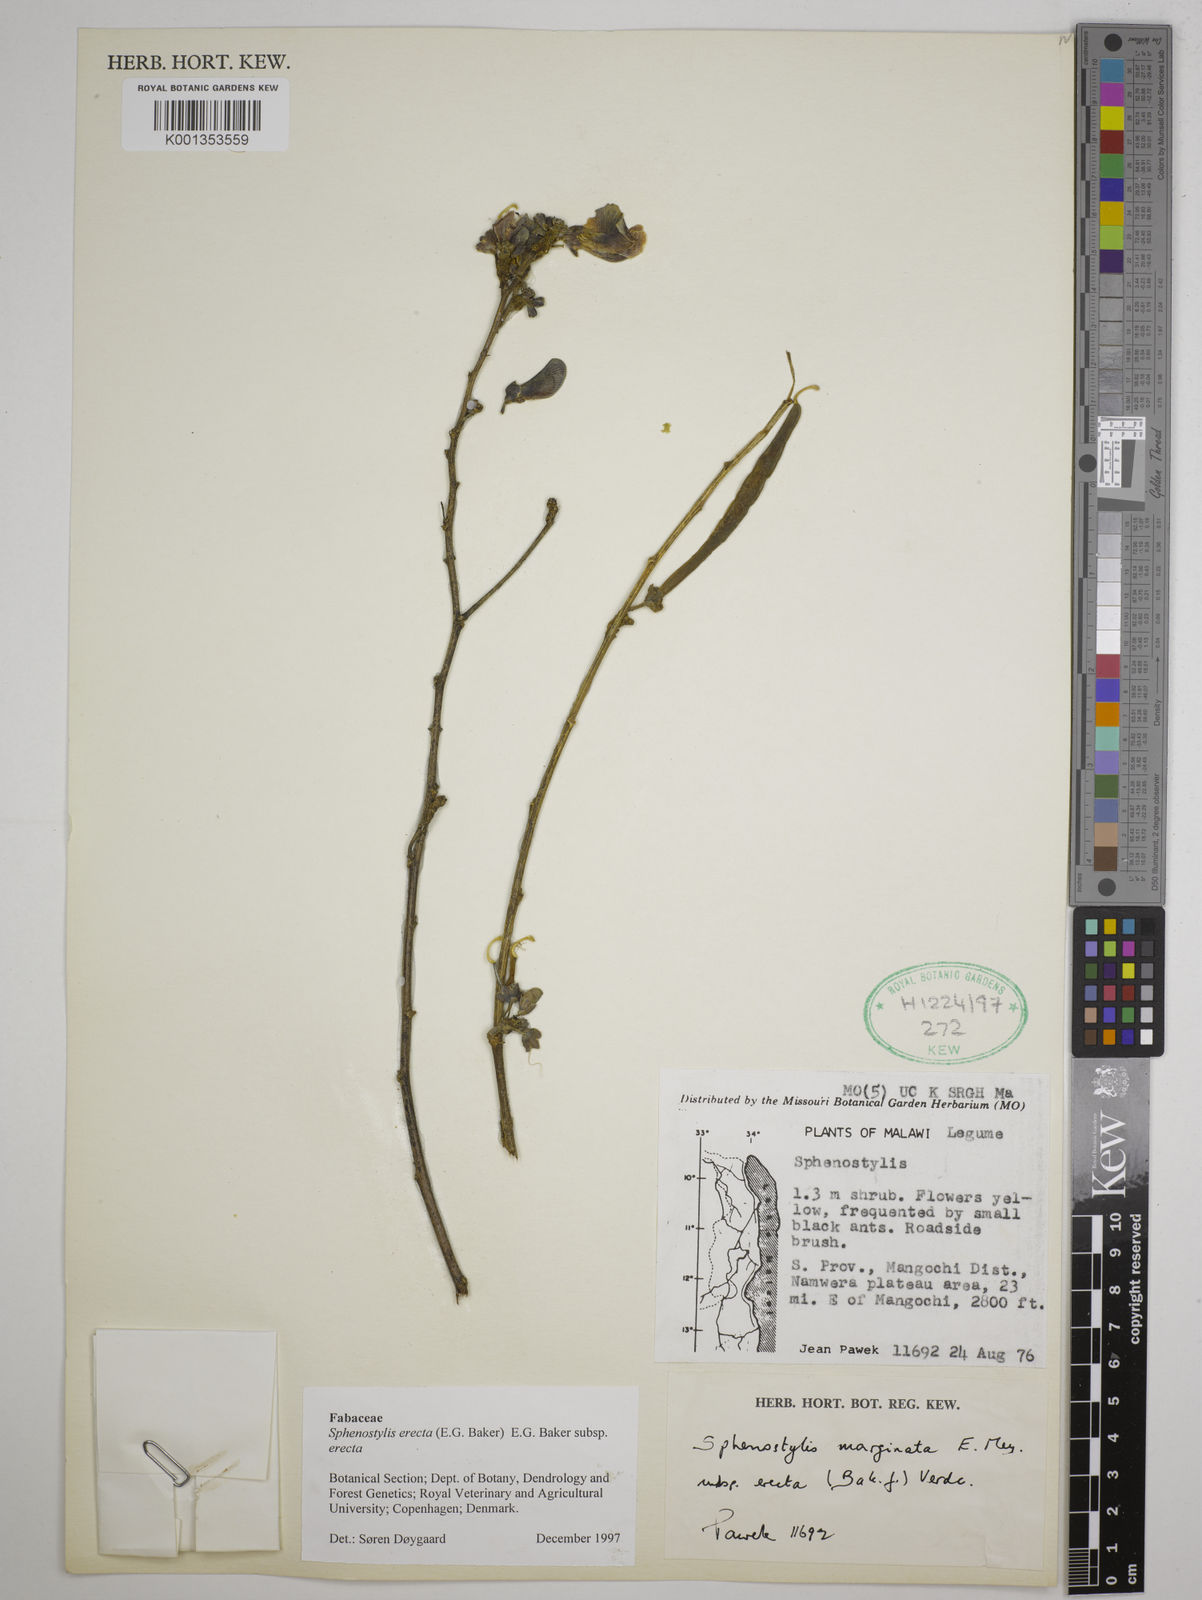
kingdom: Plantae
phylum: Tracheophyta
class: Magnoliopsida
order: Fabales
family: Fabaceae
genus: Sphenostylis
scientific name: Sphenostylis erecta
